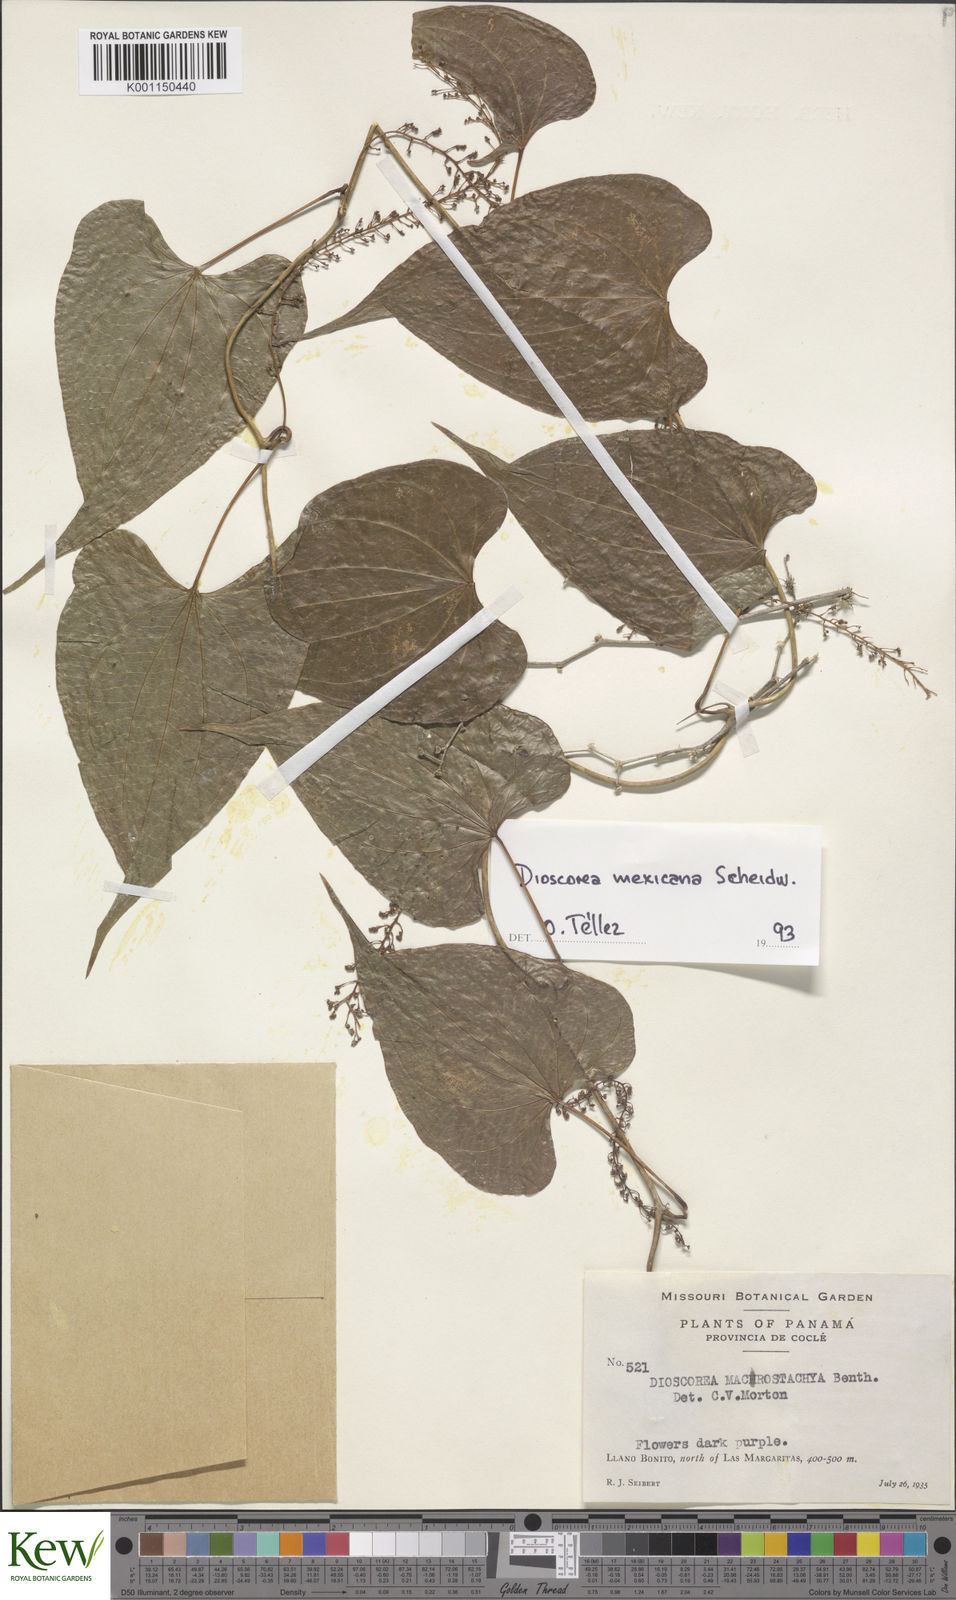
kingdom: Plantae
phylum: Tracheophyta
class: Liliopsida
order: Dioscoreales
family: Dioscoreaceae
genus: Dioscorea
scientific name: Dioscorea mexicana
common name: Mexican yam
